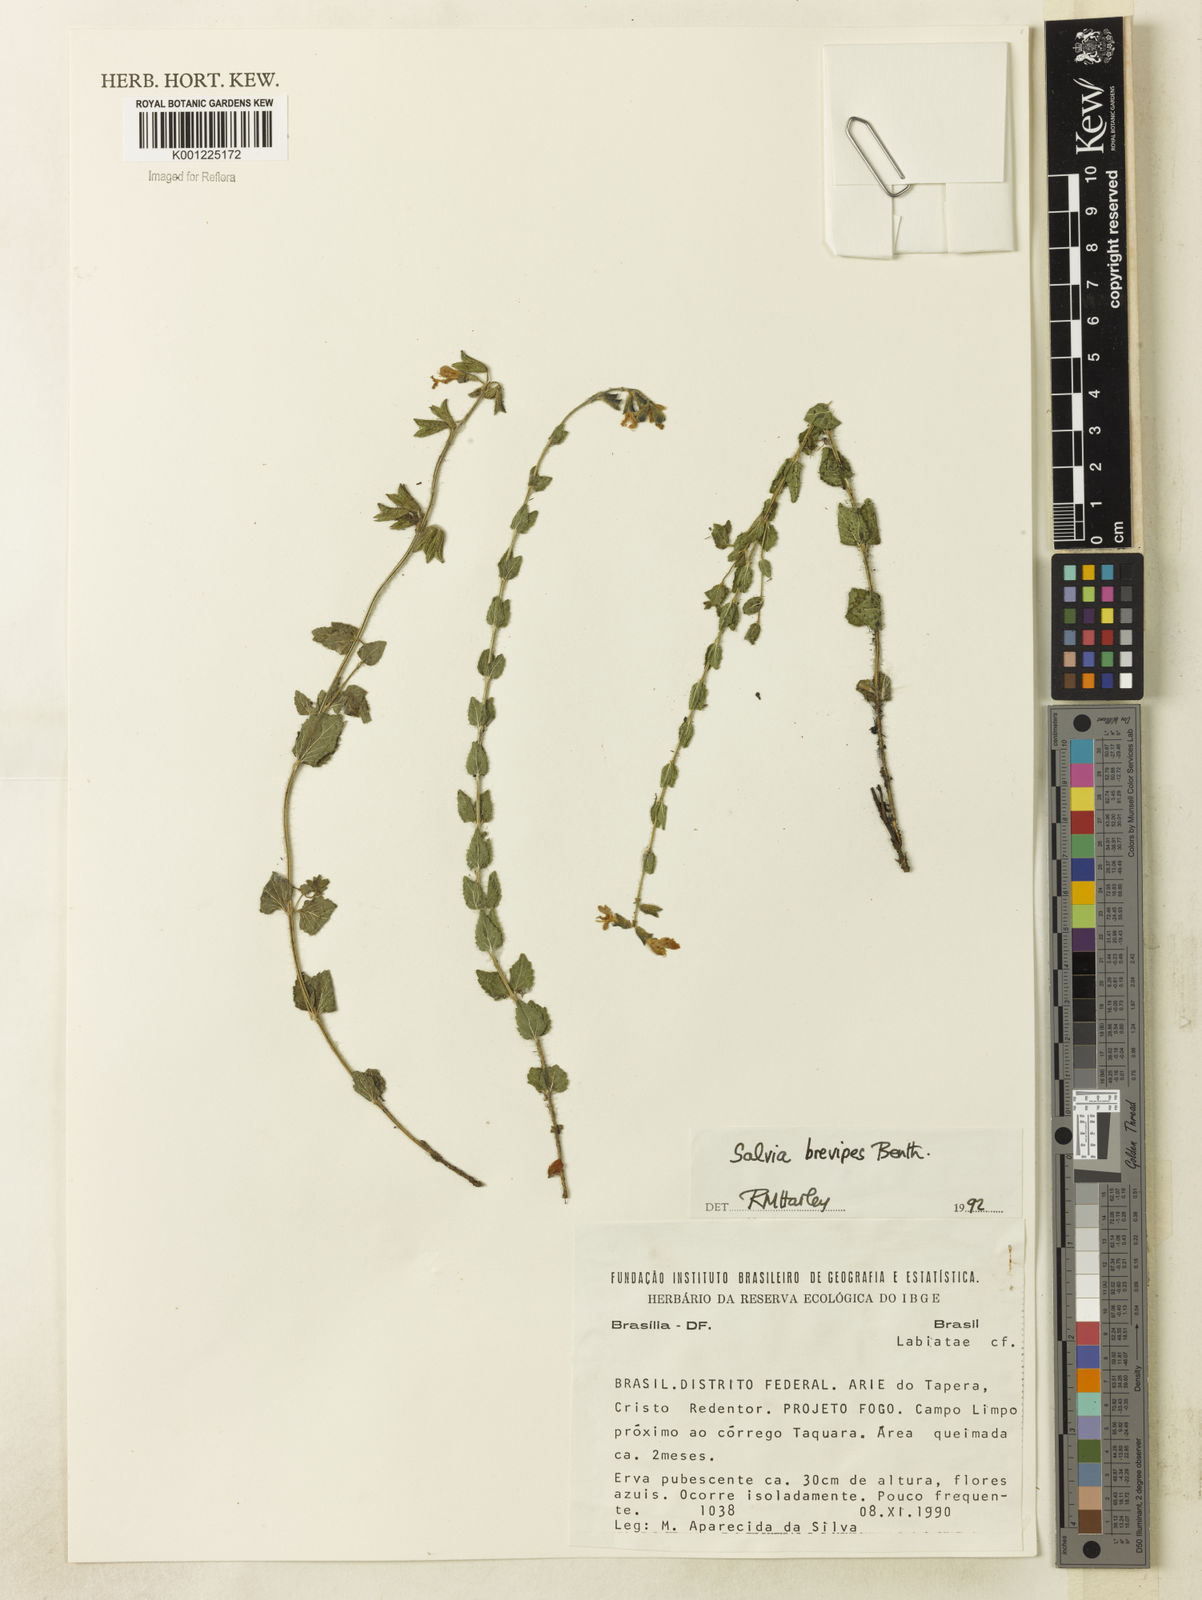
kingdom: Plantae
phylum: Tracheophyta
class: Magnoliopsida
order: Lamiales
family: Lamiaceae
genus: Salvia
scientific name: Salvia cerradicola
